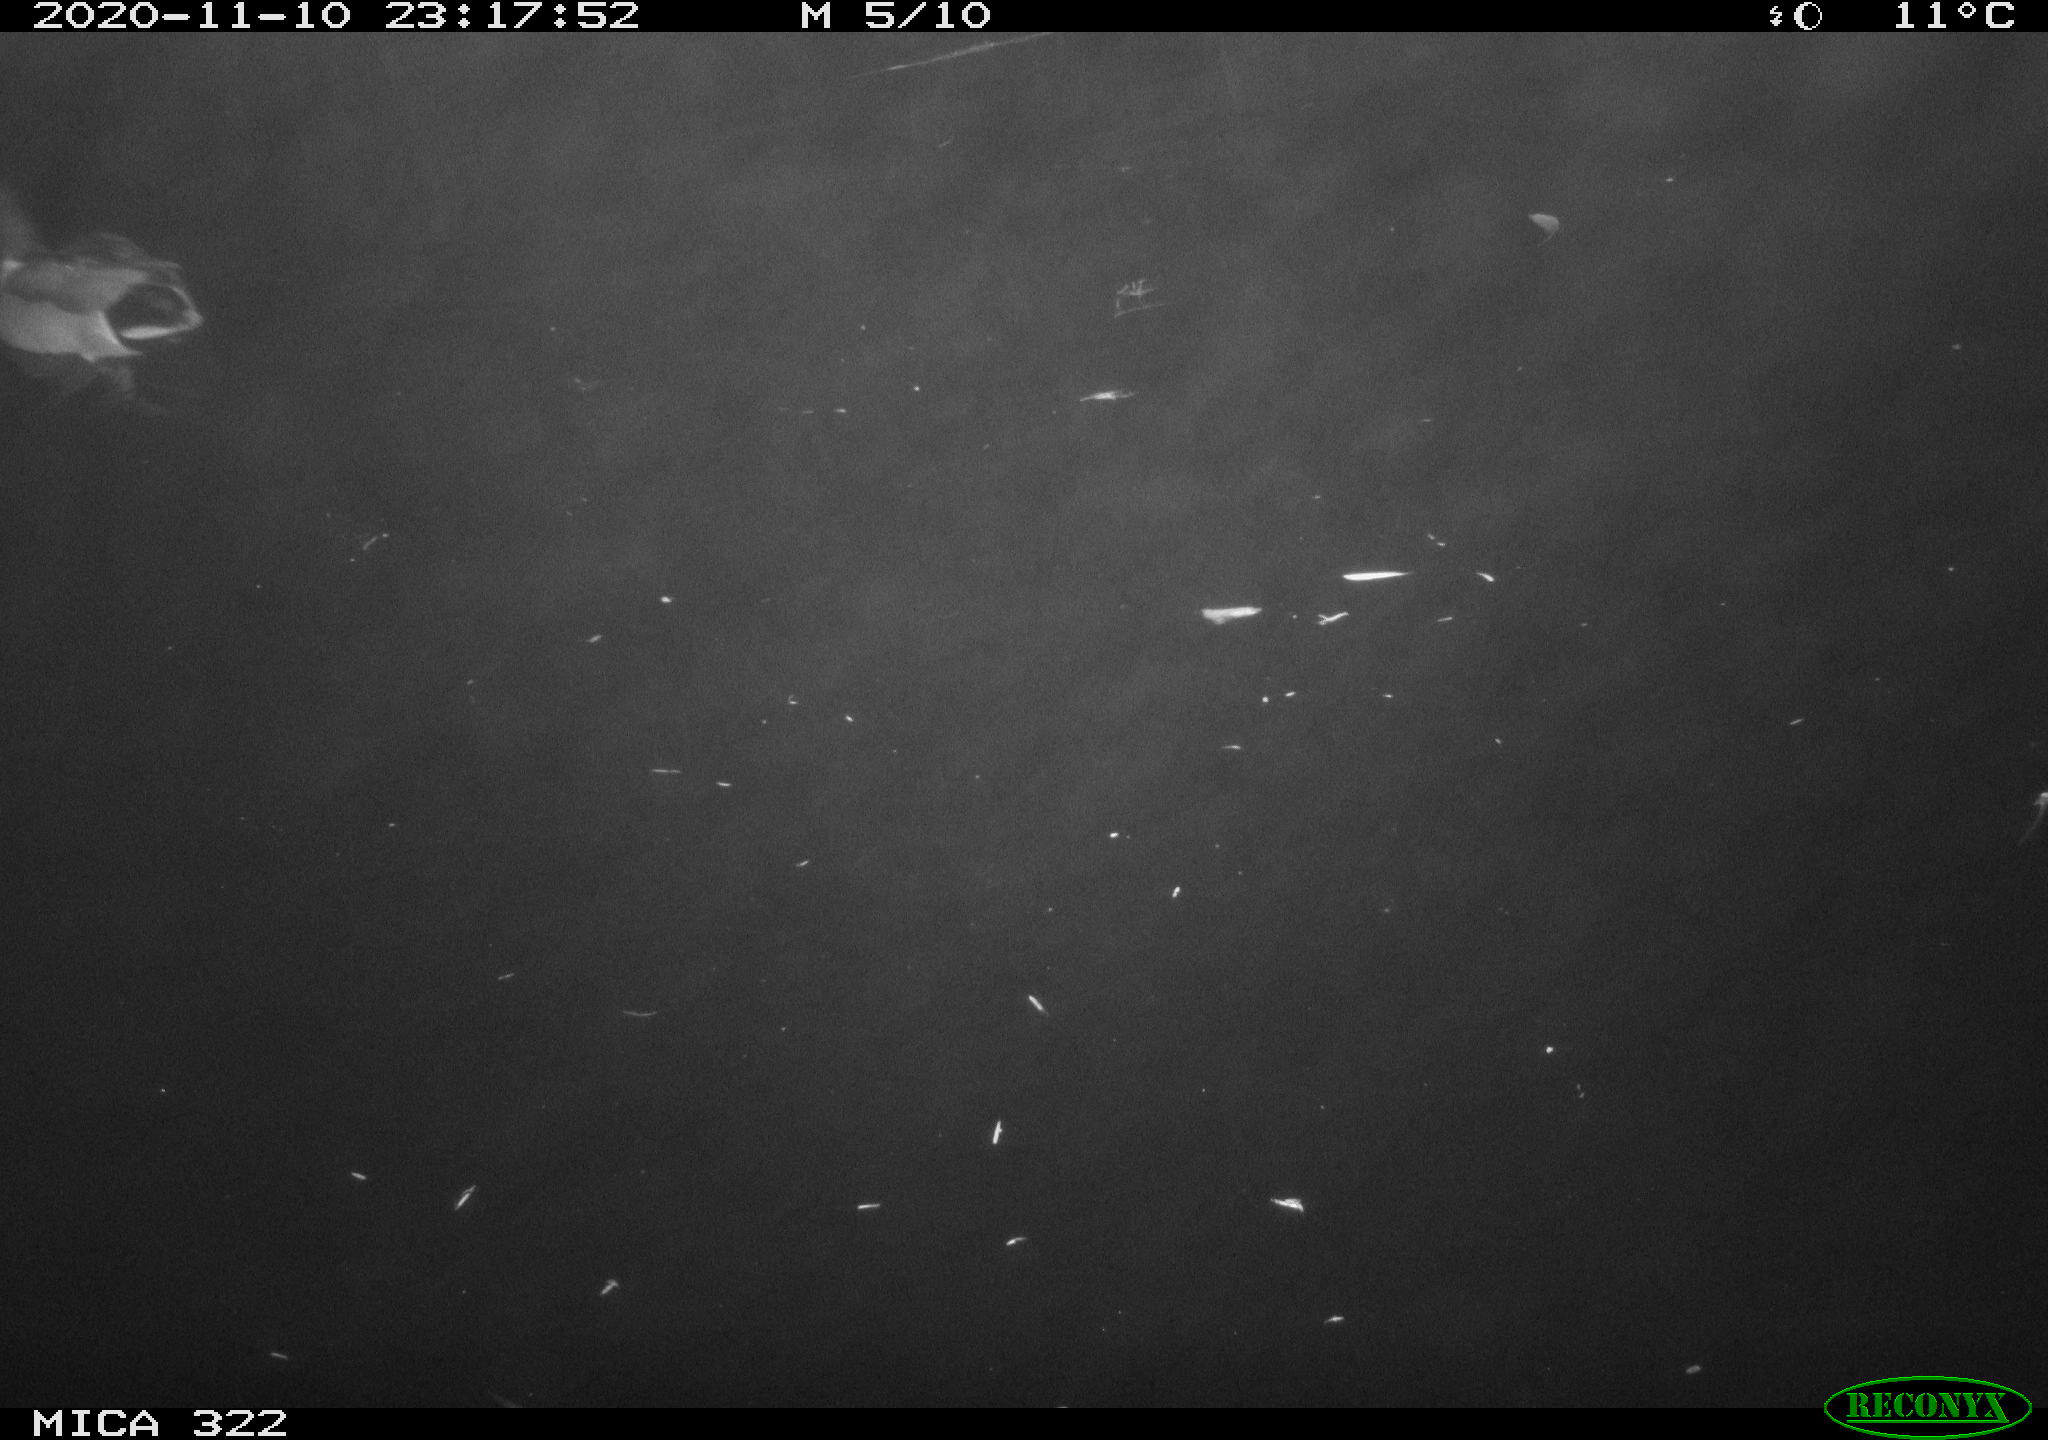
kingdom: Animalia
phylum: Chordata
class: Aves
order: Anseriformes
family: Anatidae
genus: Anas
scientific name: Anas platyrhynchos
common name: Mallard
